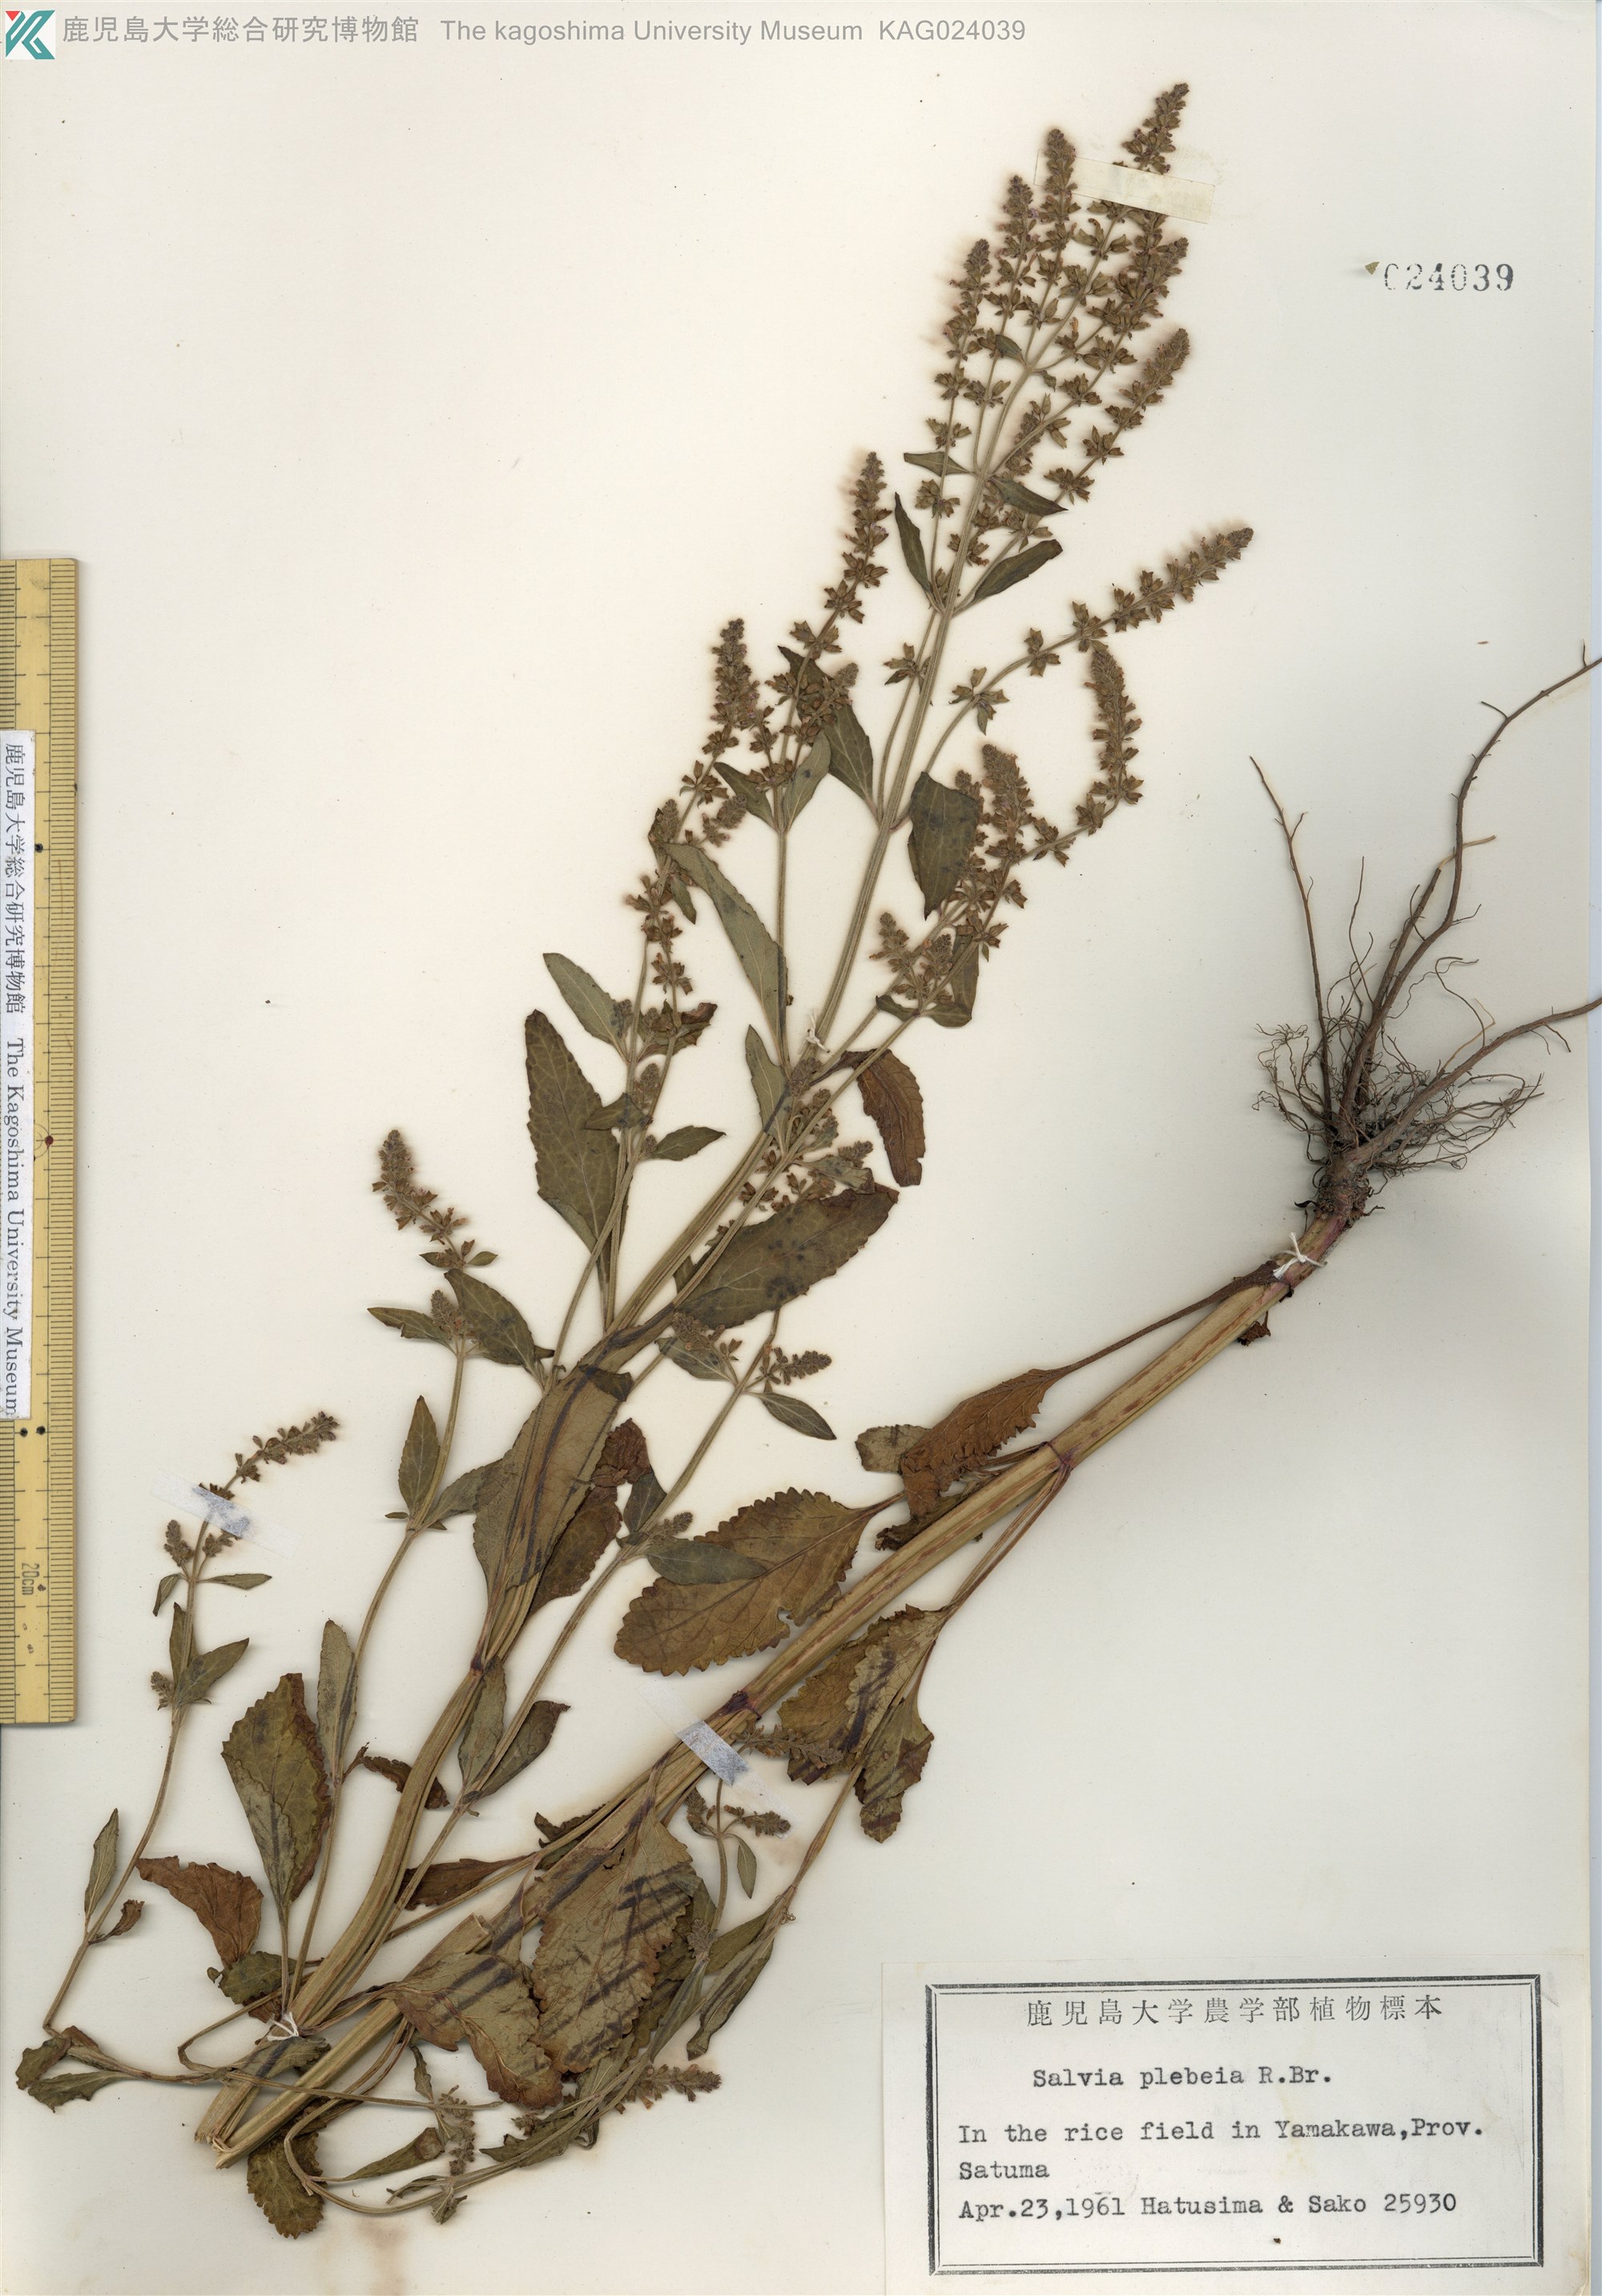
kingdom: Plantae
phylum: Tracheophyta
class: Magnoliopsida
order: Lamiales
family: Lamiaceae
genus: Salvia
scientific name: Salvia plebeia
